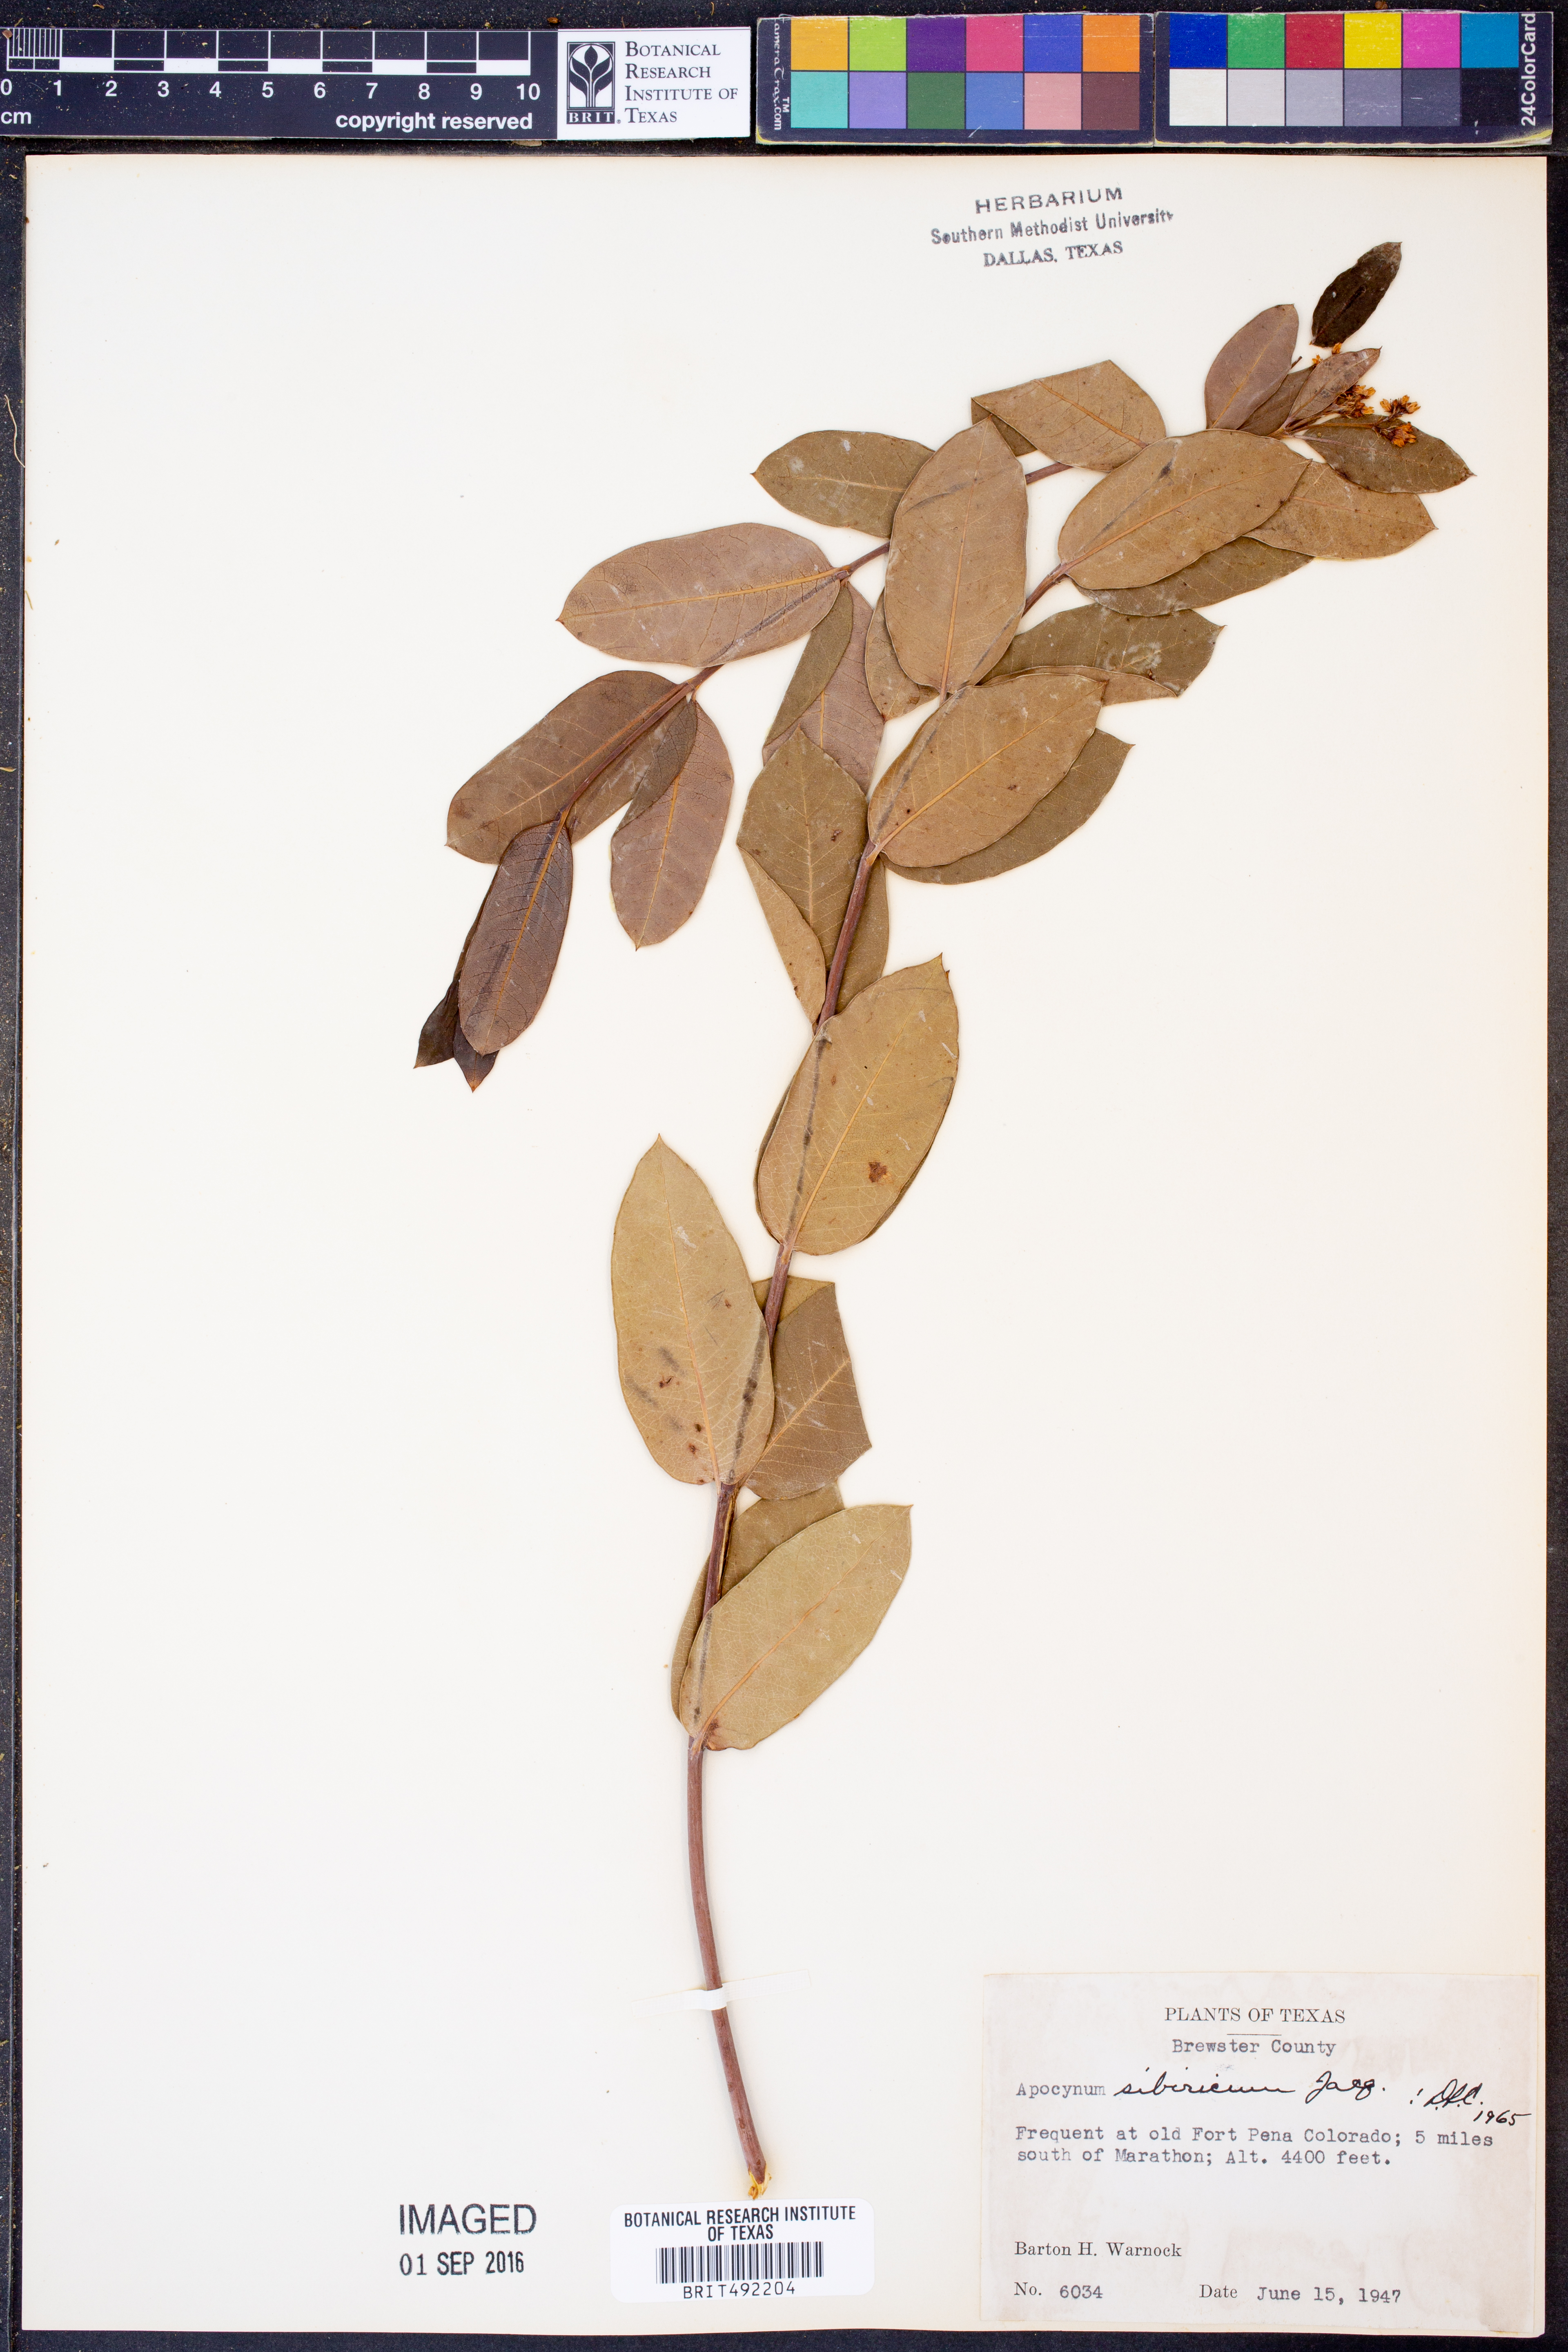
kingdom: Plantae
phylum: Tracheophyta
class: Magnoliopsida
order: Gentianales
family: Apocynaceae
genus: Apocynum
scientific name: Apocynum cannabinum
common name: Hemp dogbane
